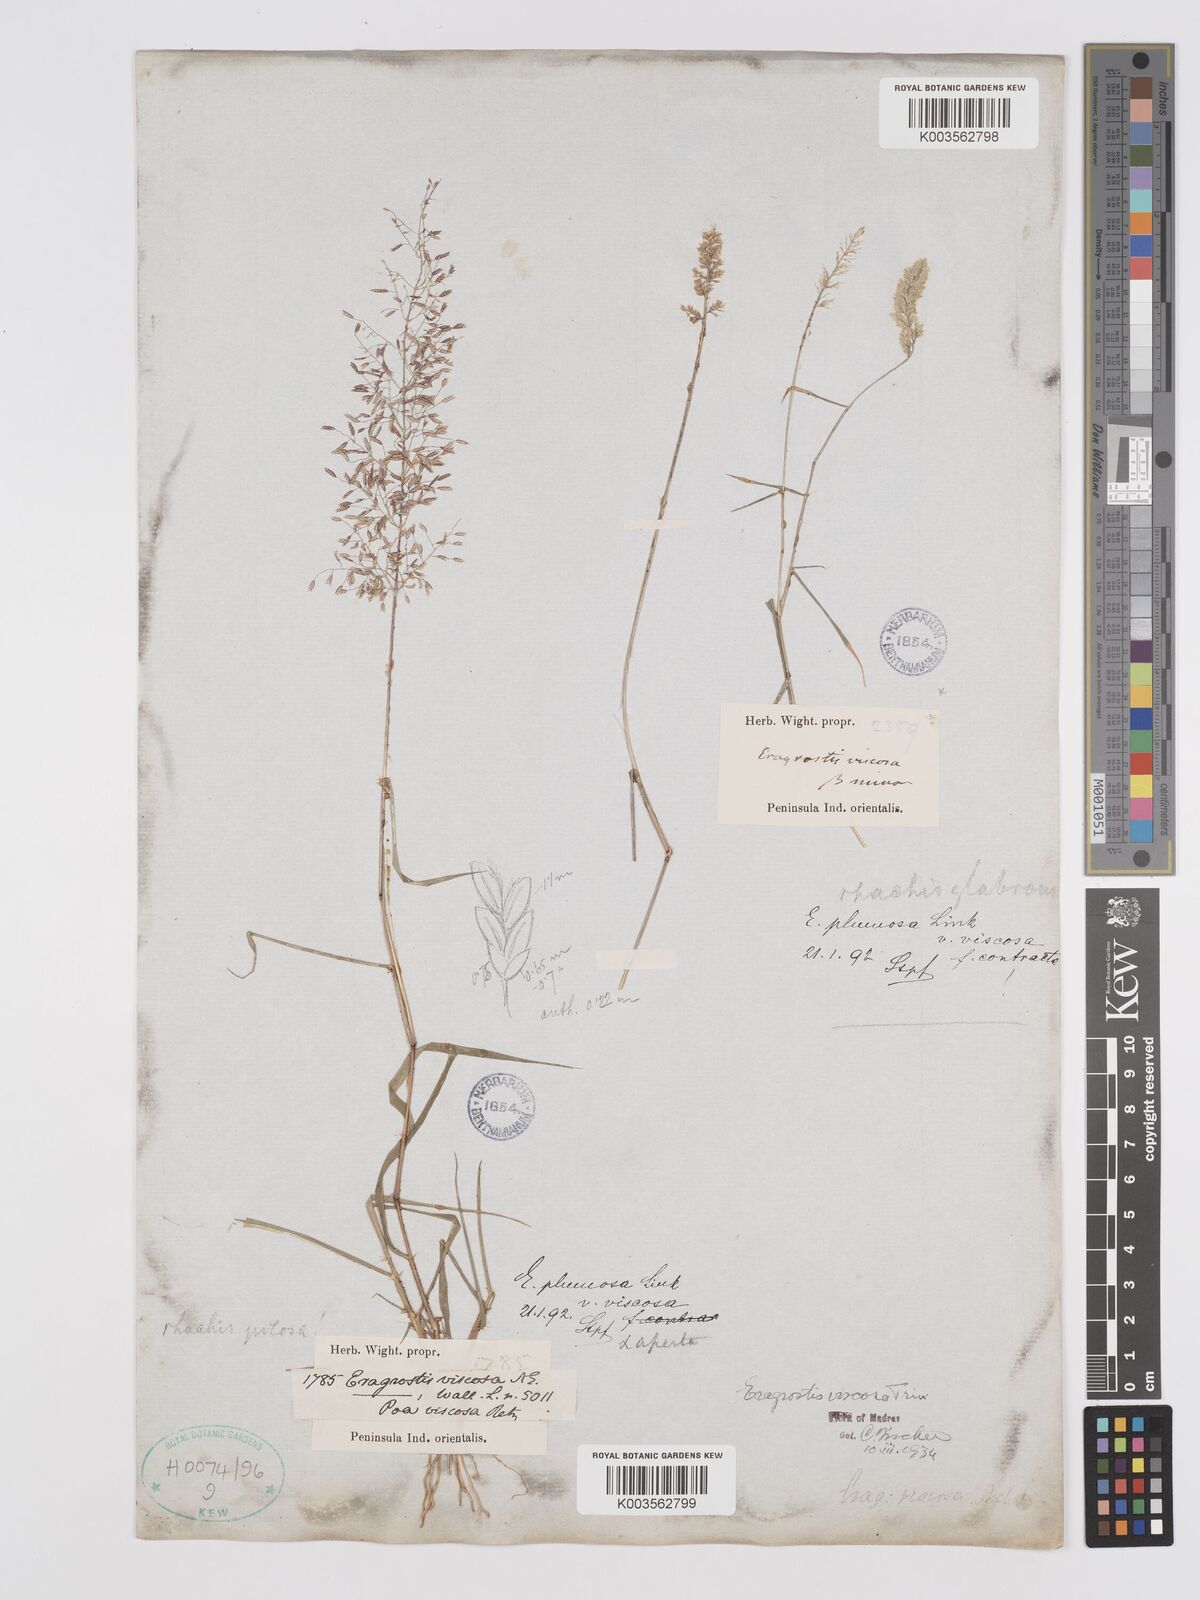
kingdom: Plantae
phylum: Tracheophyta
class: Liliopsida
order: Poales
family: Poaceae
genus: Eragrostis
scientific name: Eragrostis viscosa
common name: Sticky love grass
